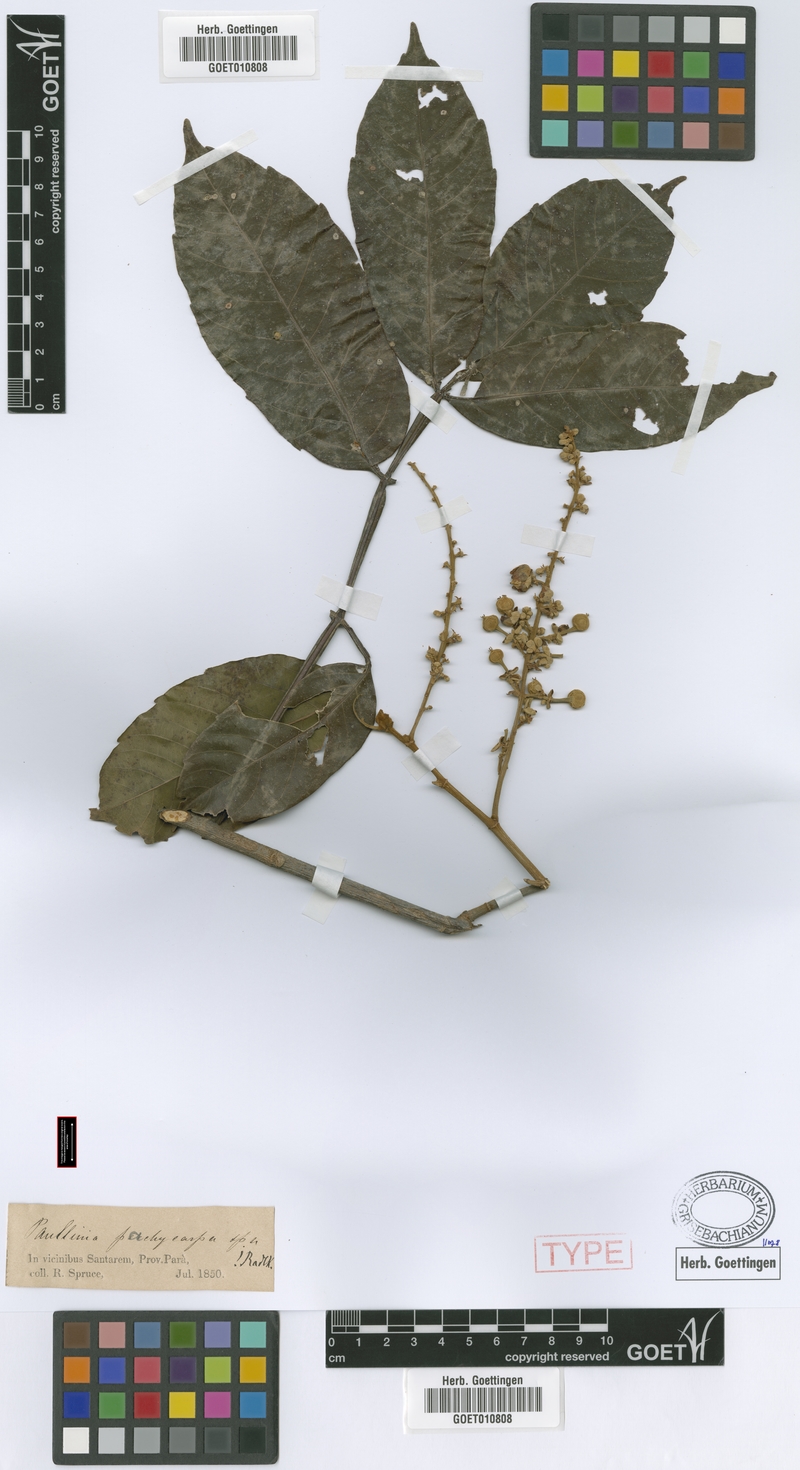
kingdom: Plantae
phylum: Tracheophyta
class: Magnoliopsida
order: Sapindales
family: Sapindaceae
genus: Paullinia
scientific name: Paullinia pachycarpa
